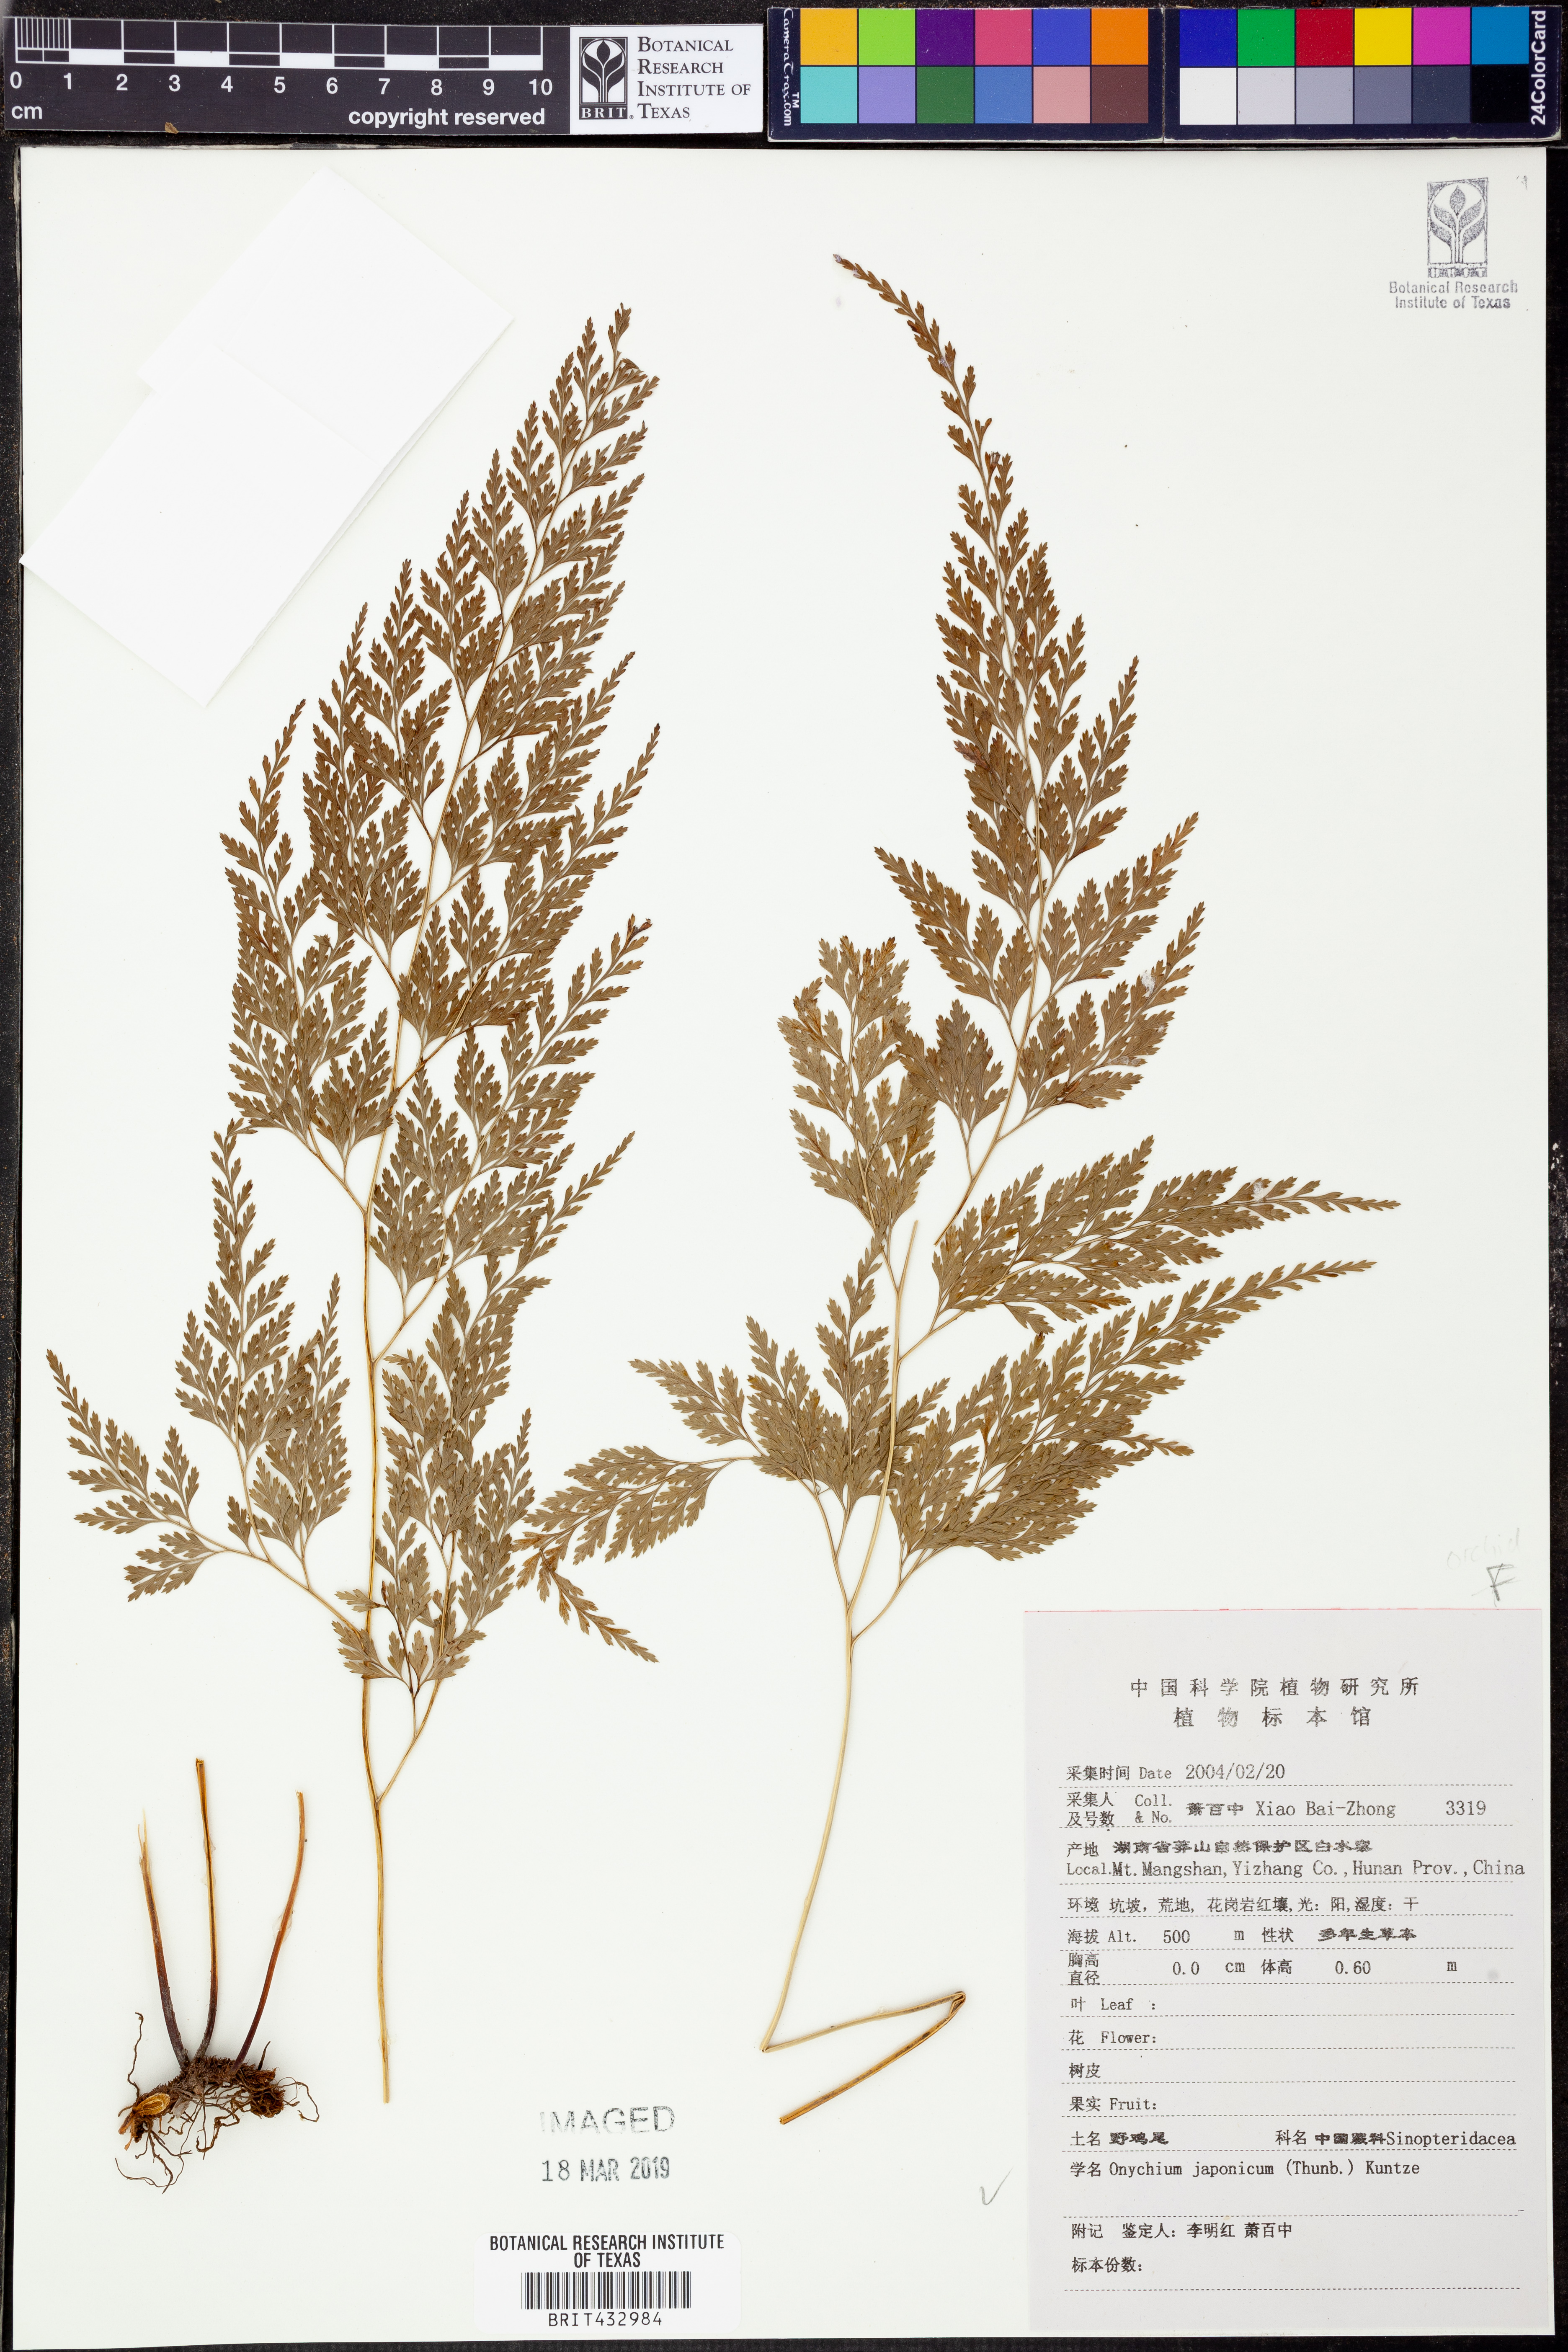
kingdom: Plantae
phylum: Tracheophyta
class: Polypodiopsida
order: Polypodiales
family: Pteridaceae
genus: Onychium
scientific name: Onychium japonicum
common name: Carrot fern
